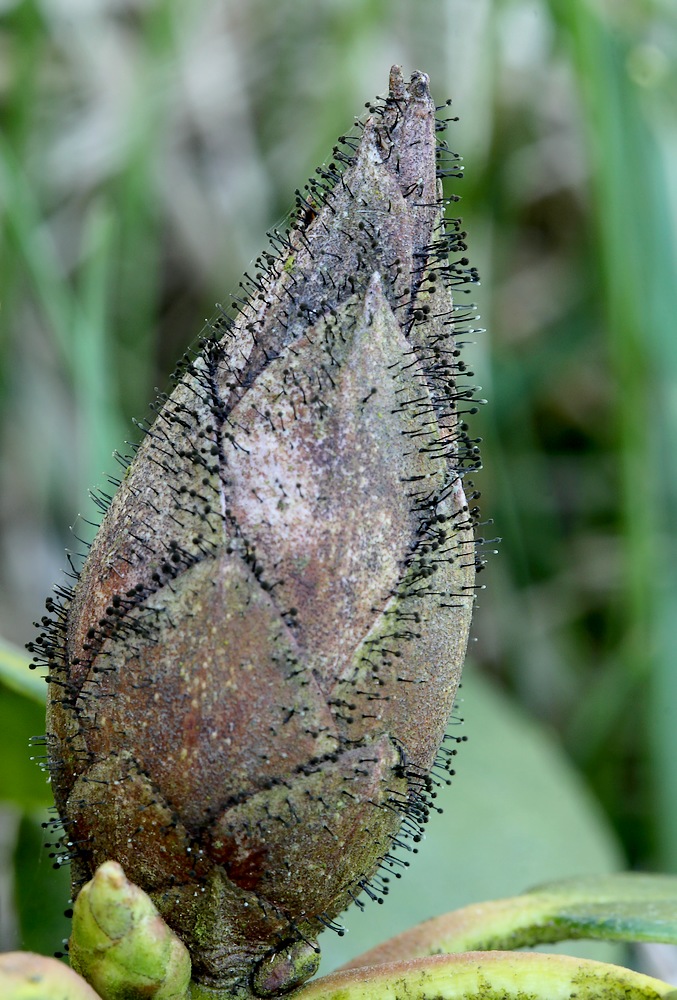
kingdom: Fungi
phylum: Ascomycota
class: Dothideomycetes
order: Pleosporales
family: Melanommataceae
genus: Seifertia
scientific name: Seifertia azaleae
